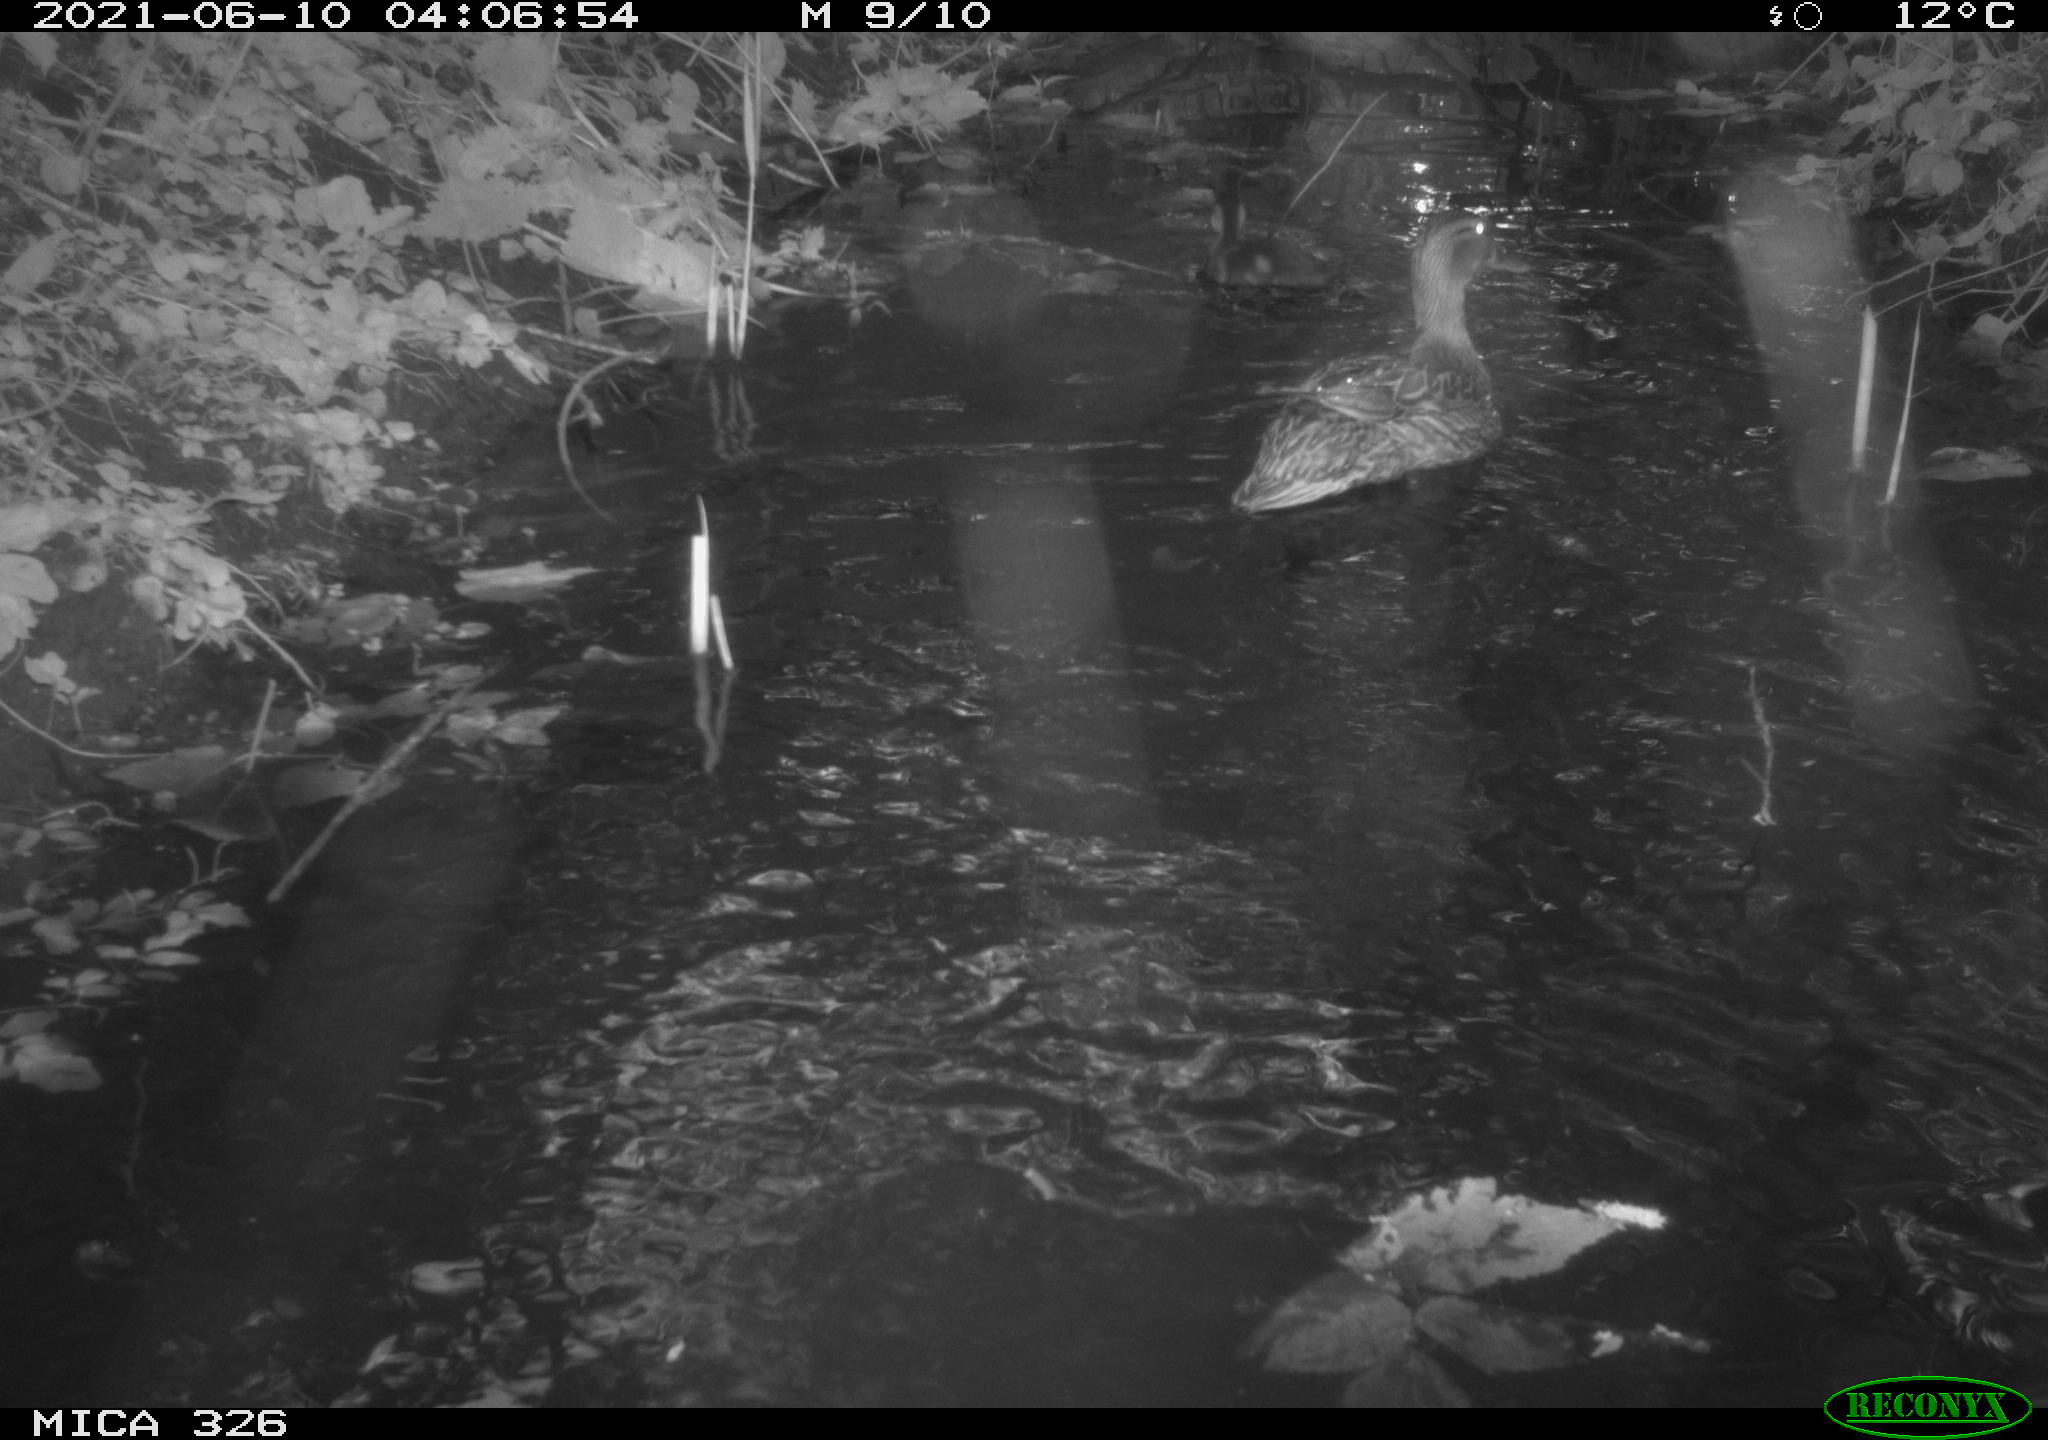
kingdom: Animalia
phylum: Chordata
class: Aves
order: Anseriformes
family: Anatidae
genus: Anas
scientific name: Anas platyrhynchos
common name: Mallard
